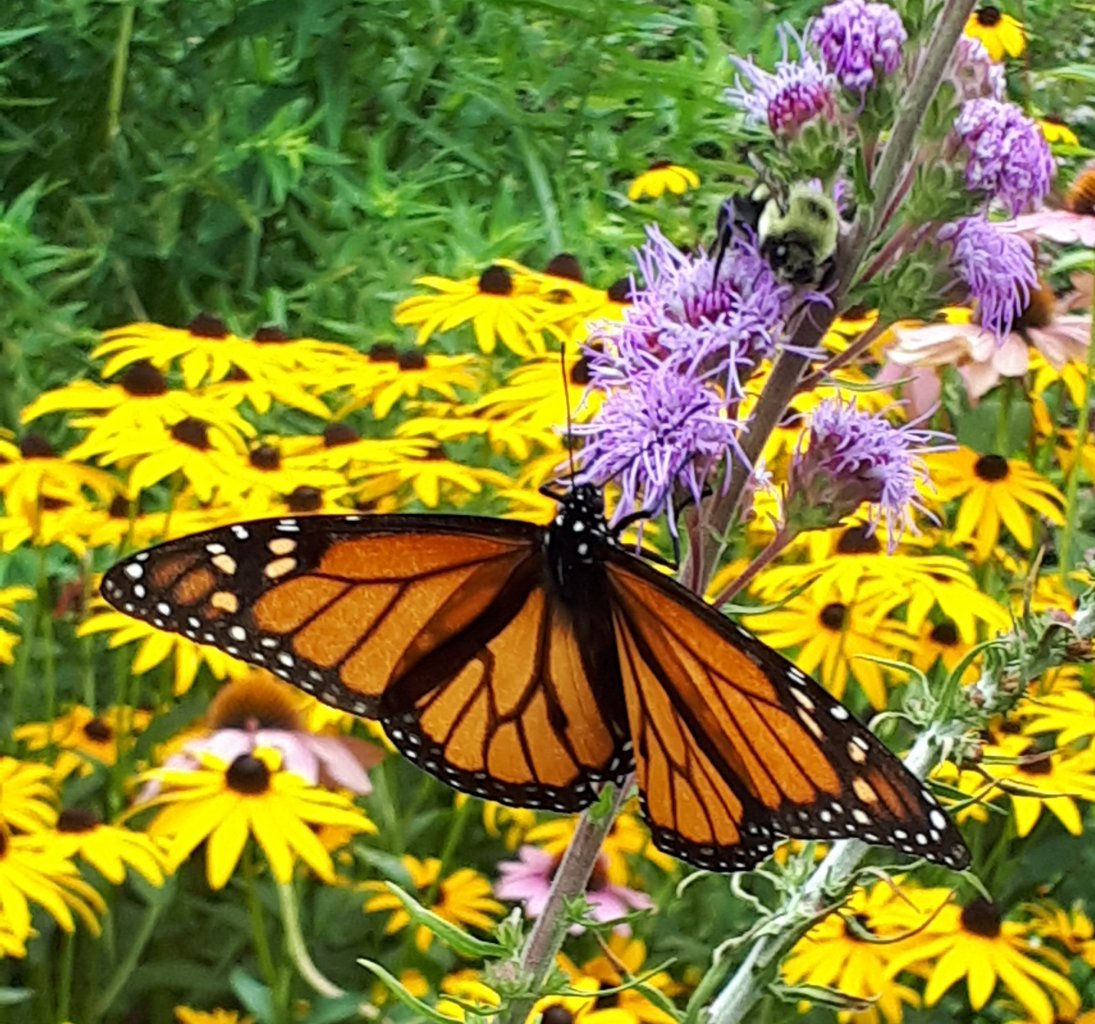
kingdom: Animalia
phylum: Arthropoda
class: Insecta
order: Lepidoptera
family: Nymphalidae
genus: Danaus
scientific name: Danaus plexippus
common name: Monarch
